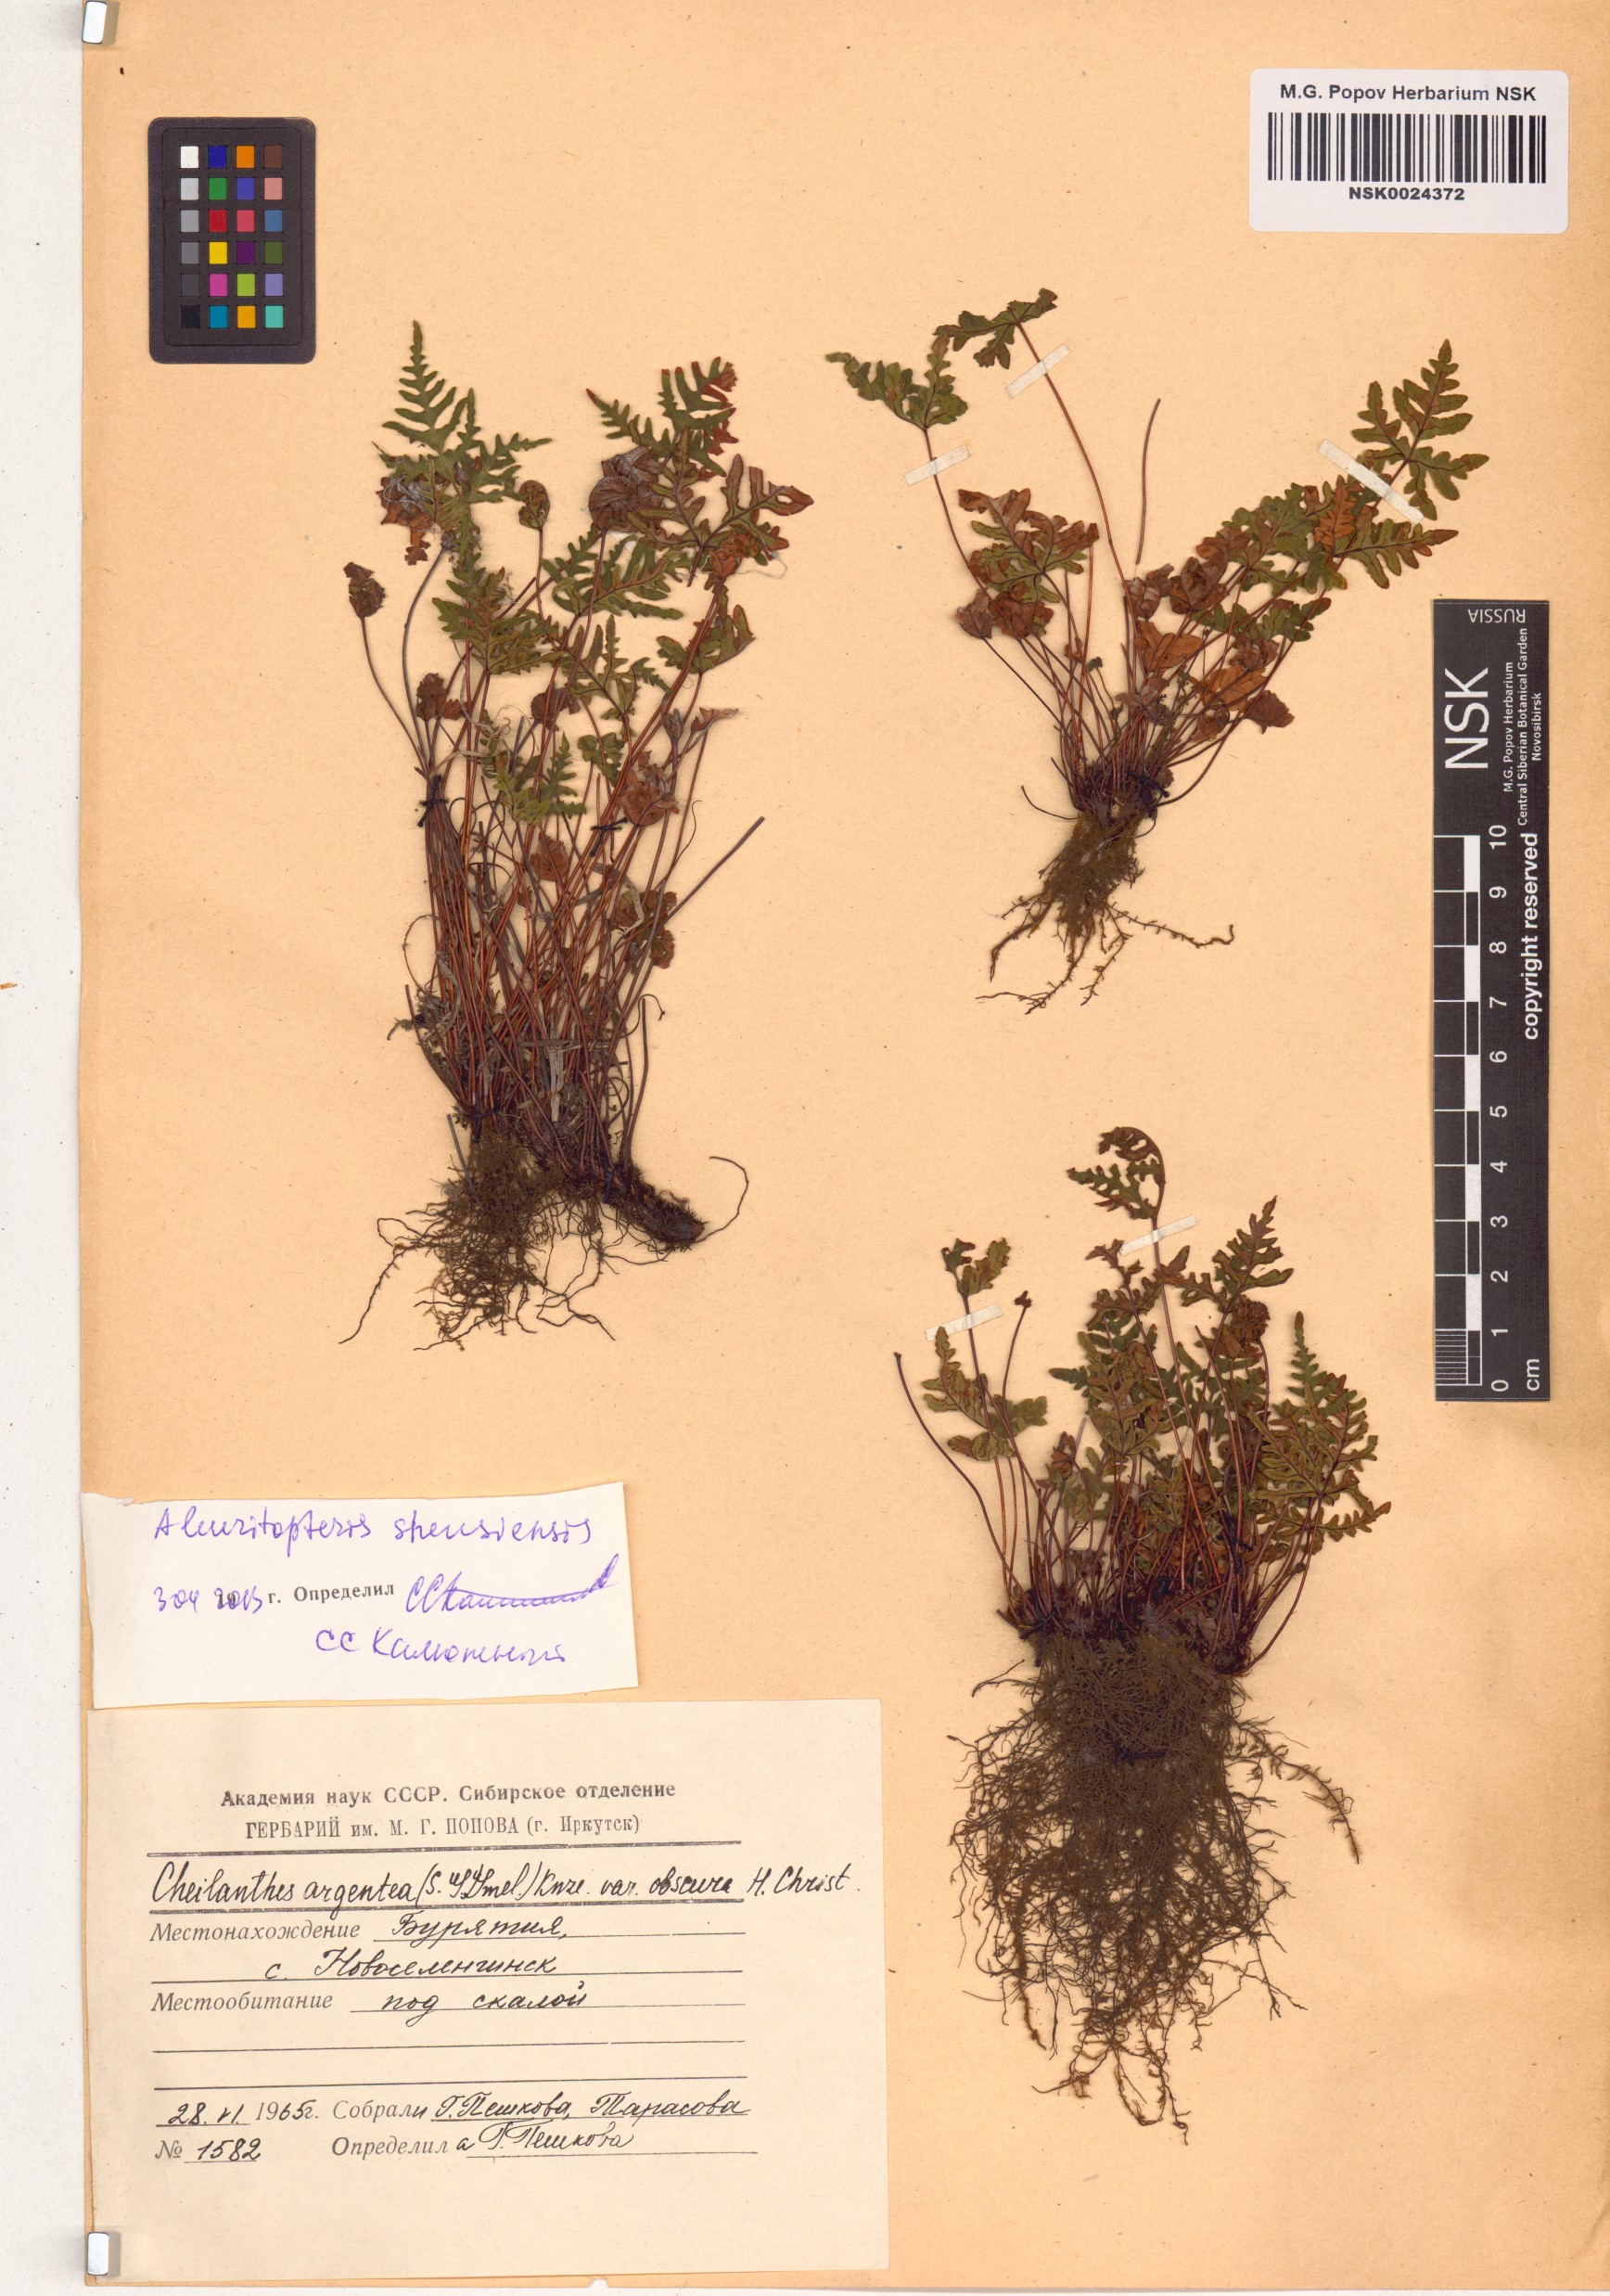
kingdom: Plantae
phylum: Tracheophyta
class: Polypodiopsida
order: Polypodiales
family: Pteridaceae
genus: Aleuritopteris
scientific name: Aleuritopteris argentea
